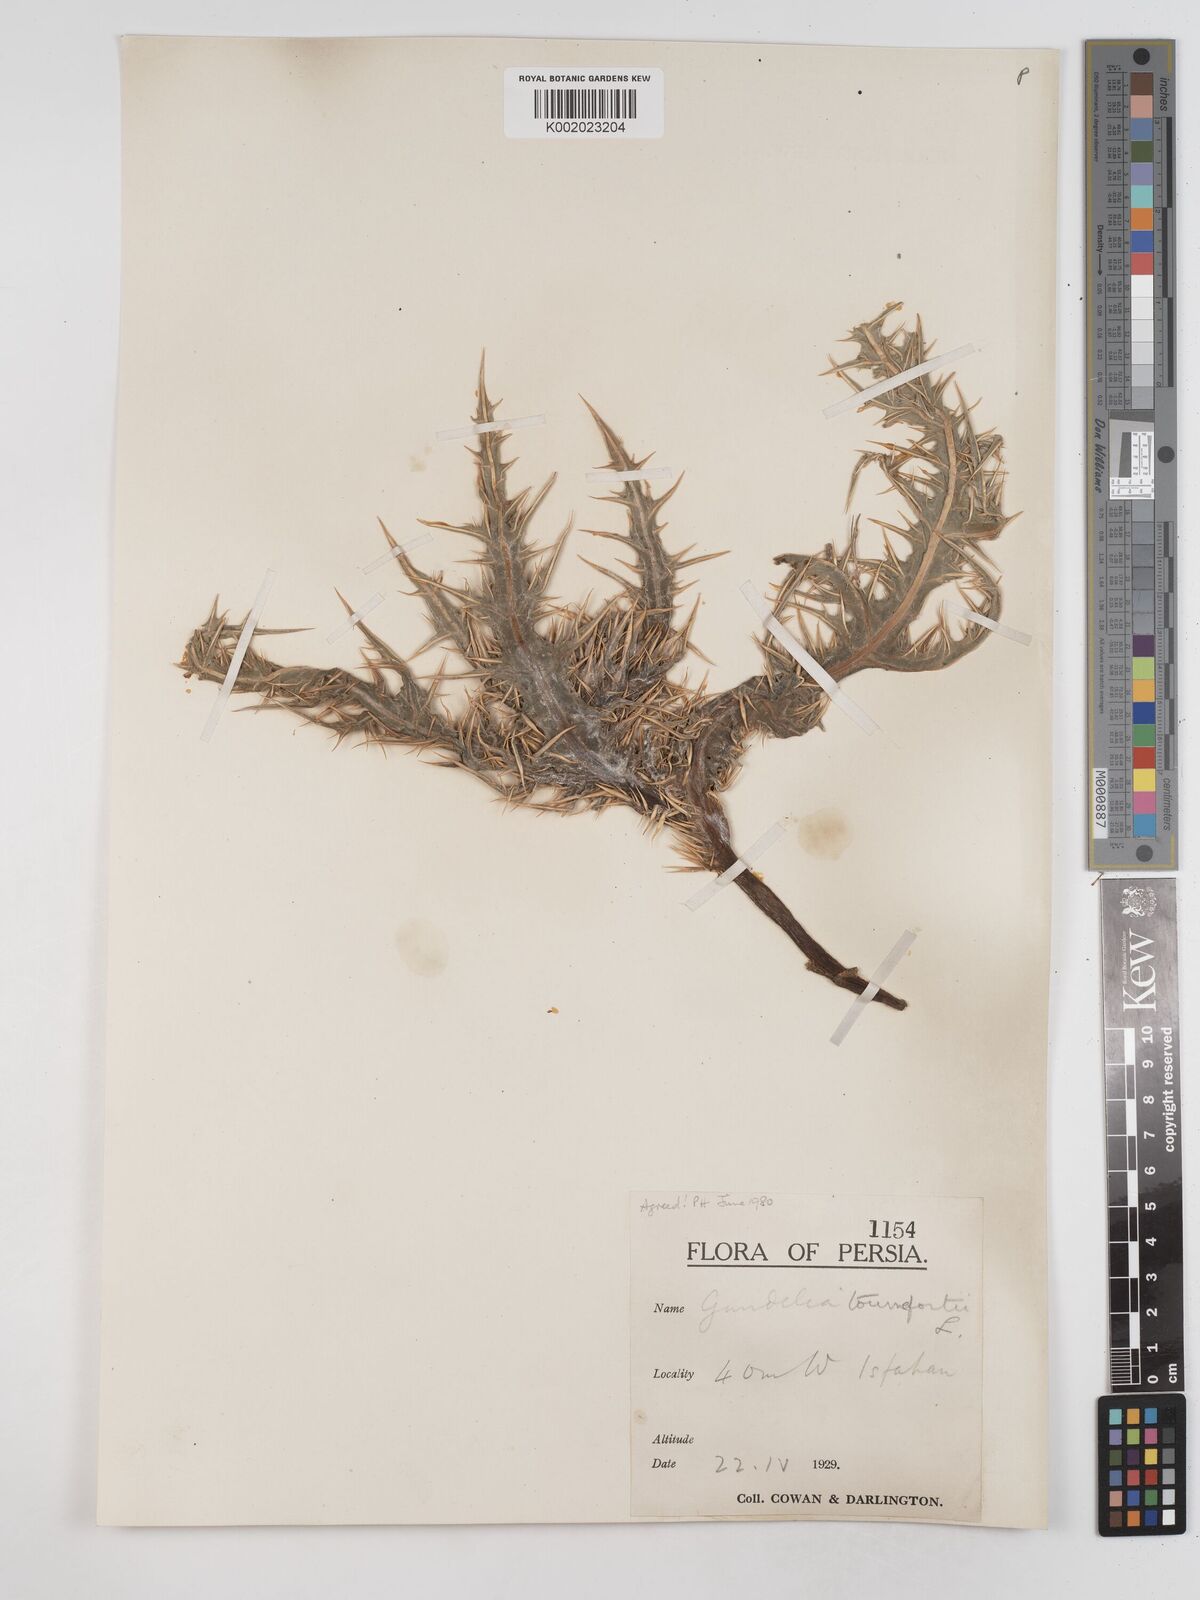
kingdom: Plantae
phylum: Tracheophyta
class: Magnoliopsida
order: Asterales
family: Asteraceae
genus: Gundelia
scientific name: Gundelia tournefortii
